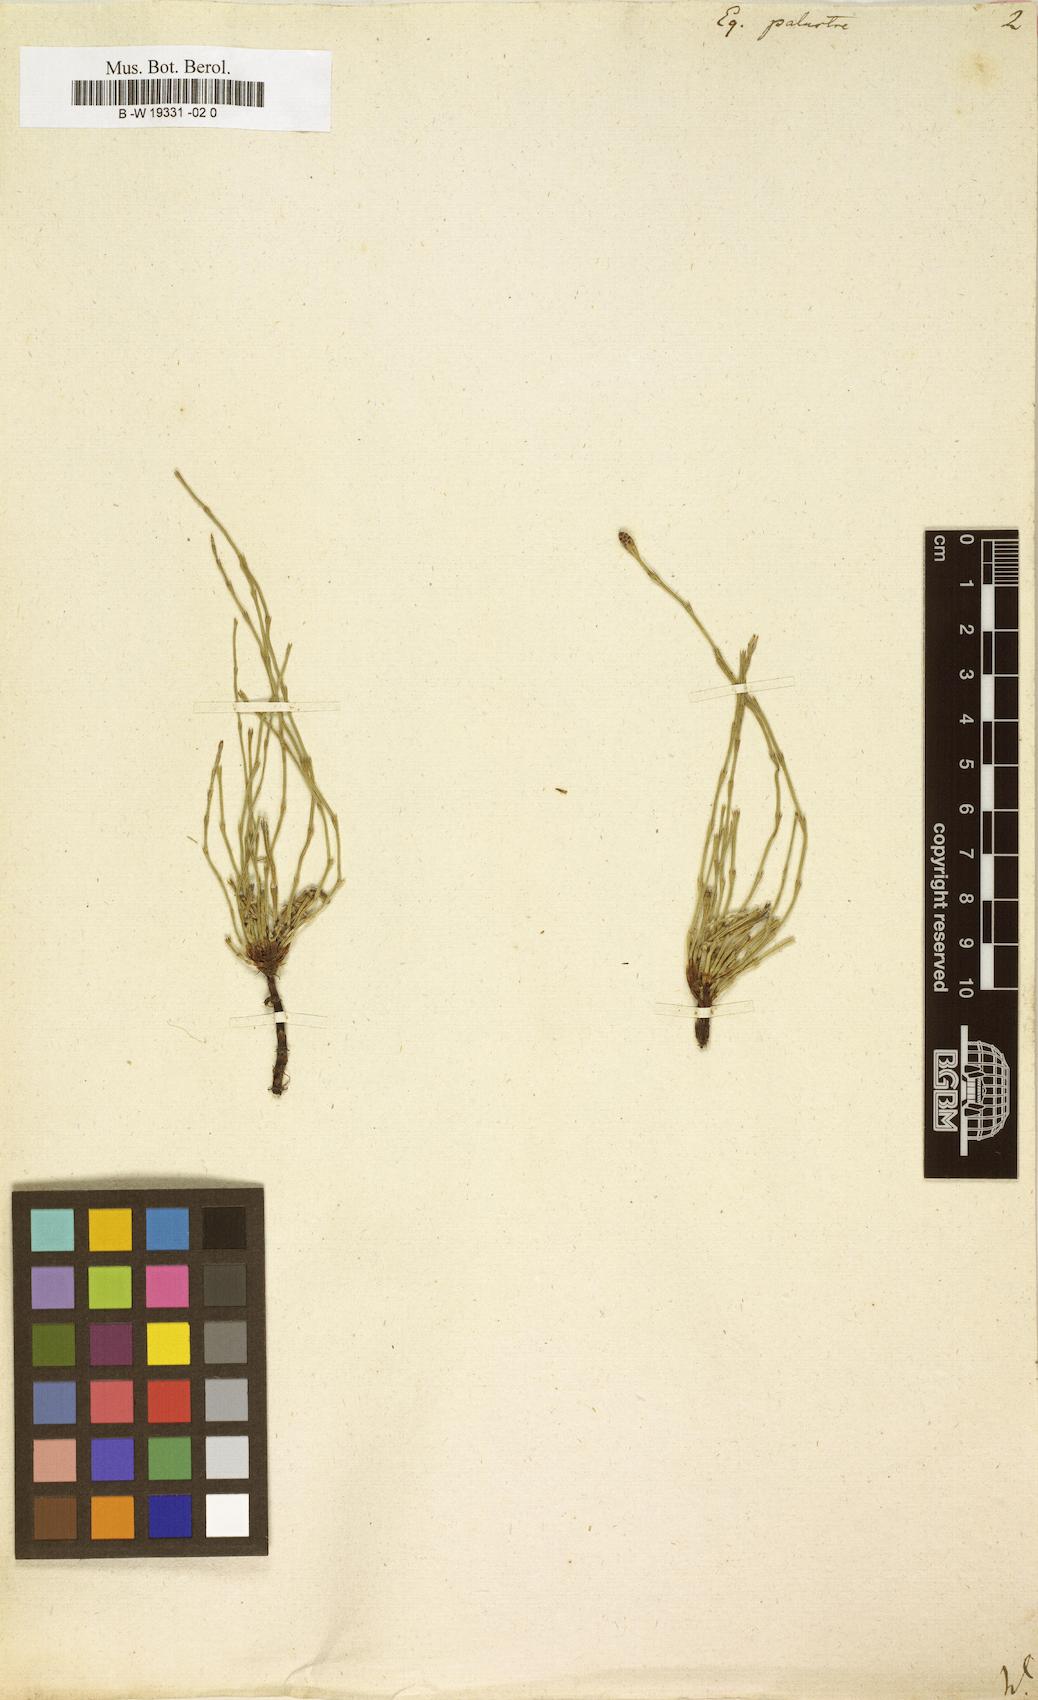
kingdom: Plantae
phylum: Tracheophyta
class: Polypodiopsida
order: Equisetales
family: Equisetaceae
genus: Equisetum
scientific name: Equisetum palustre
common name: Marsh horsetail
